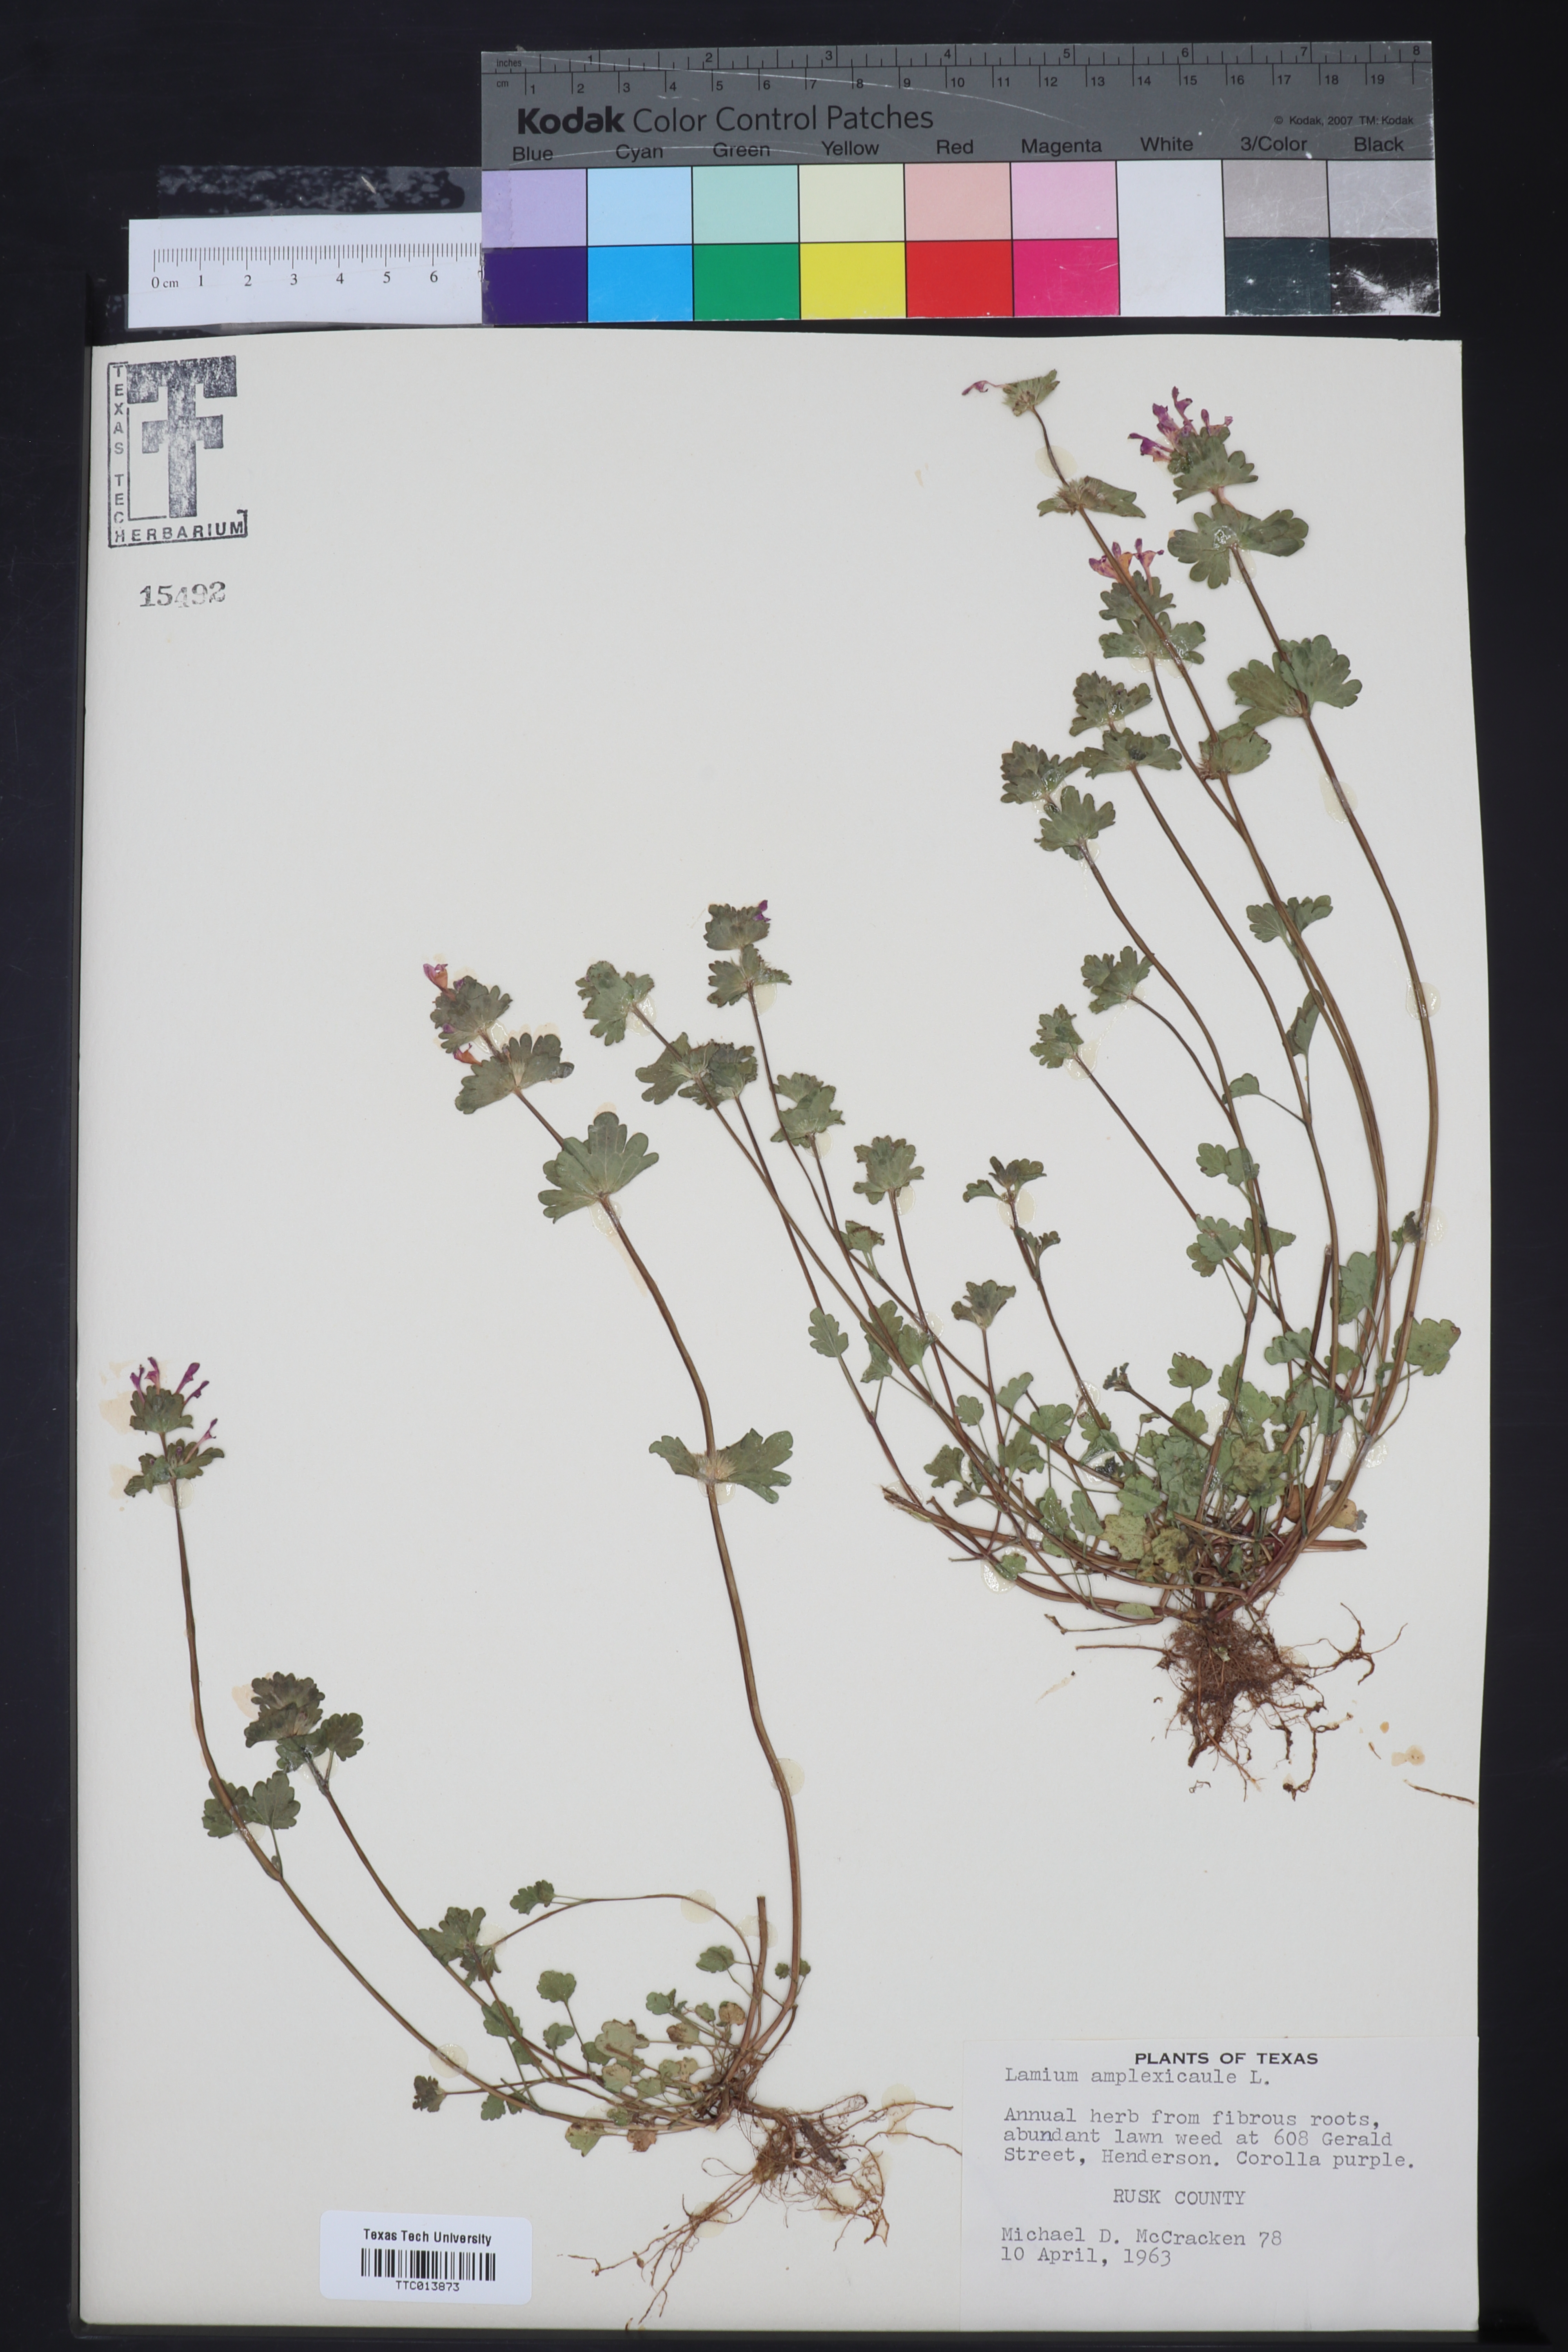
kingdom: Plantae
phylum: Tracheophyta
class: Magnoliopsida
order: Lamiales
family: Lamiaceae
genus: Lamium
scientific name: Lamium amplexicaule
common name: Henbit dead-nettle
